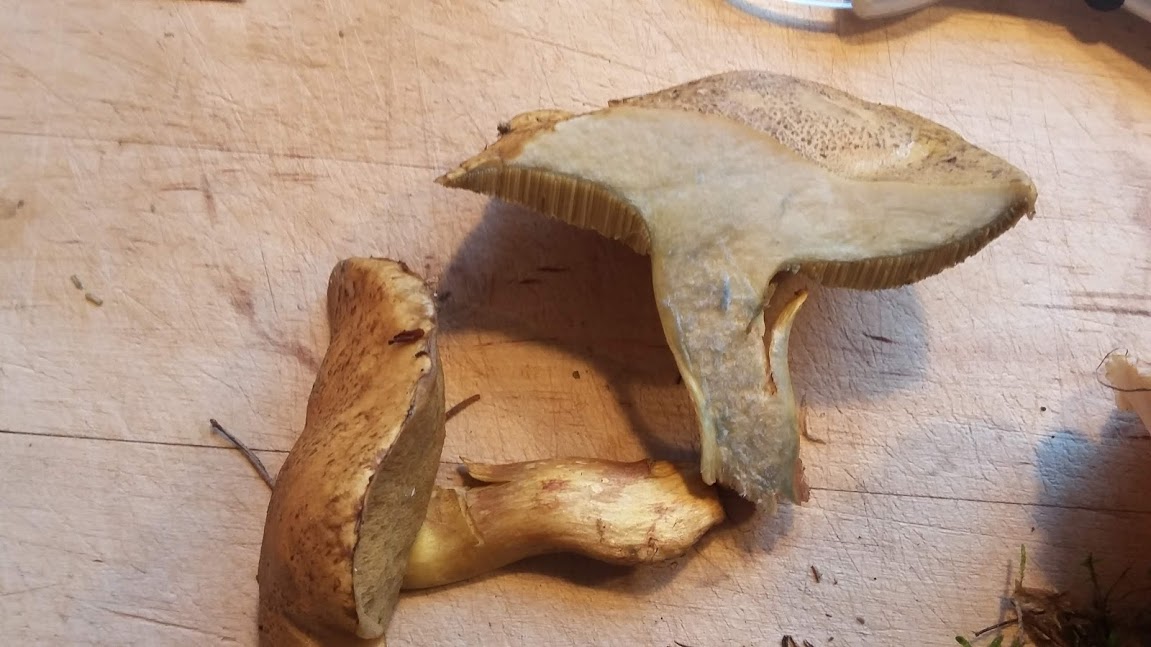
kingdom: Fungi
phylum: Basidiomycota
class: Agaricomycetes
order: Boletales
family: Suillaceae
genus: Suillus
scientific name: Suillus variegatus
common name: broget slimrørhat
